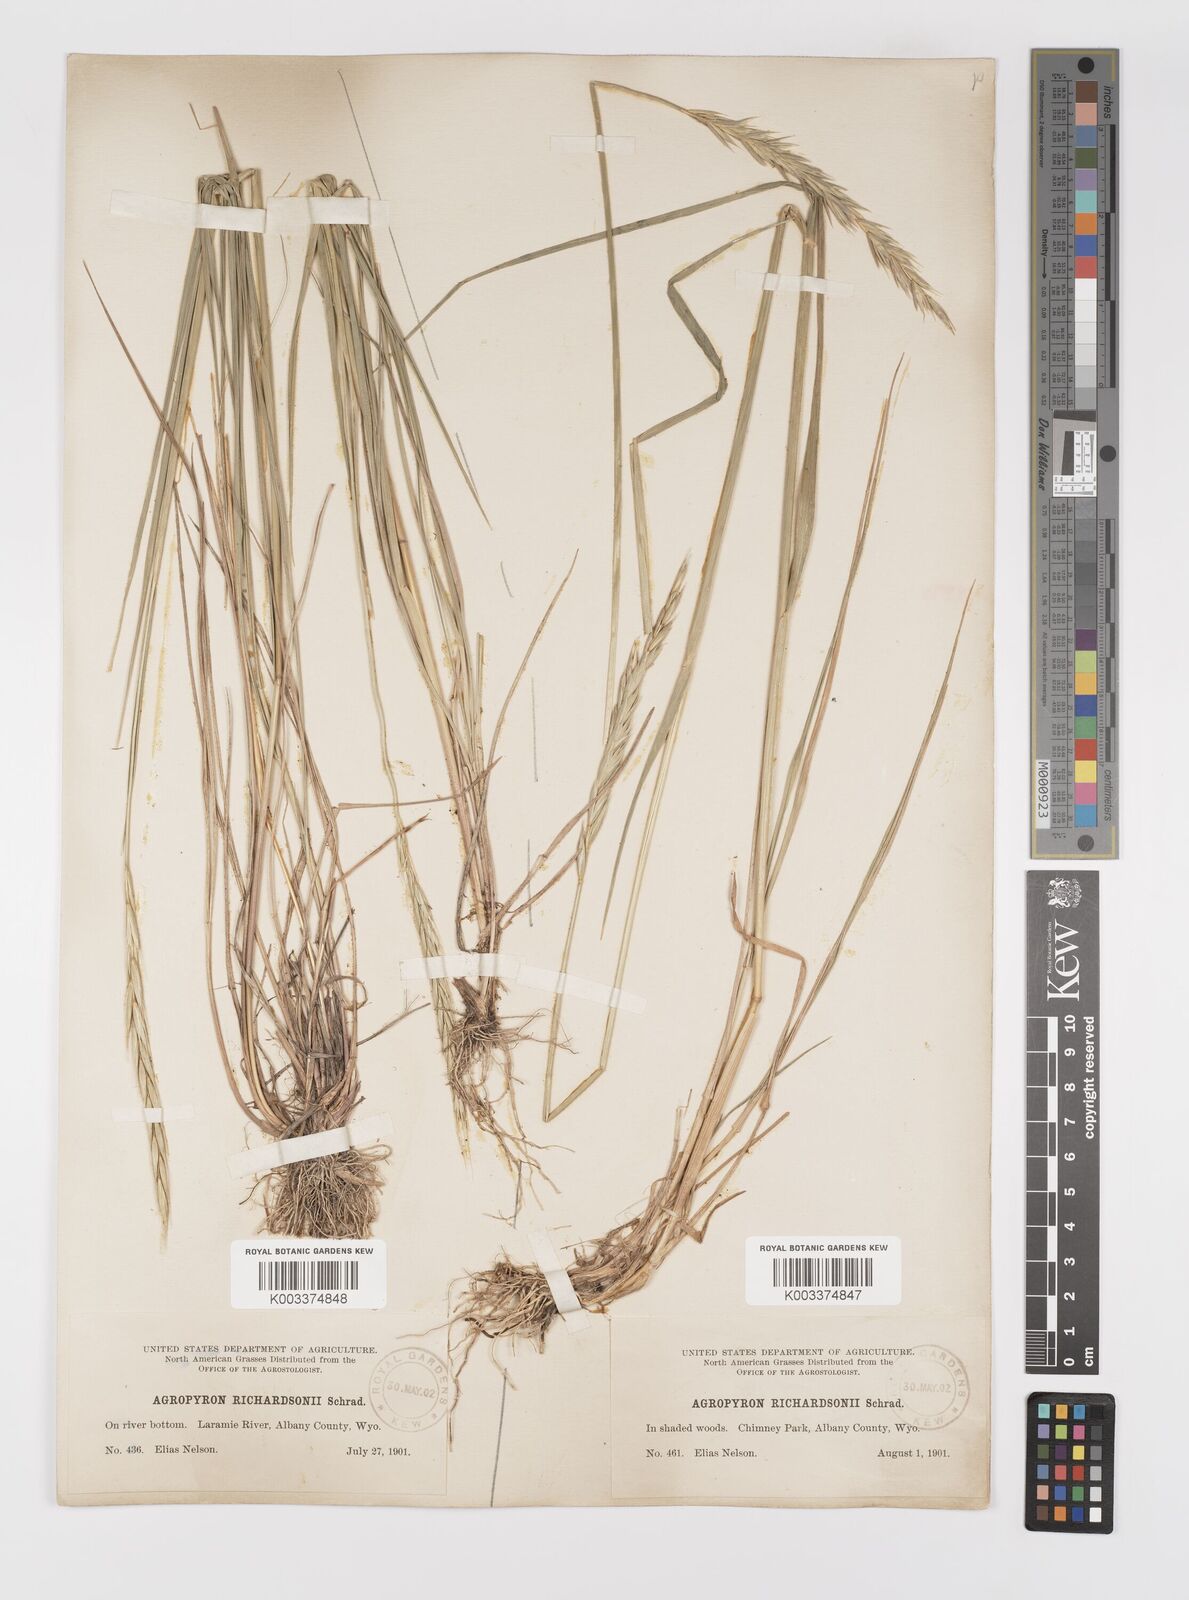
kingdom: Plantae
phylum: Tracheophyta
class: Liliopsida
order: Poales
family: Poaceae
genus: Elymus
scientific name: Elymus violaceus
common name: Arctic wheatgrass
